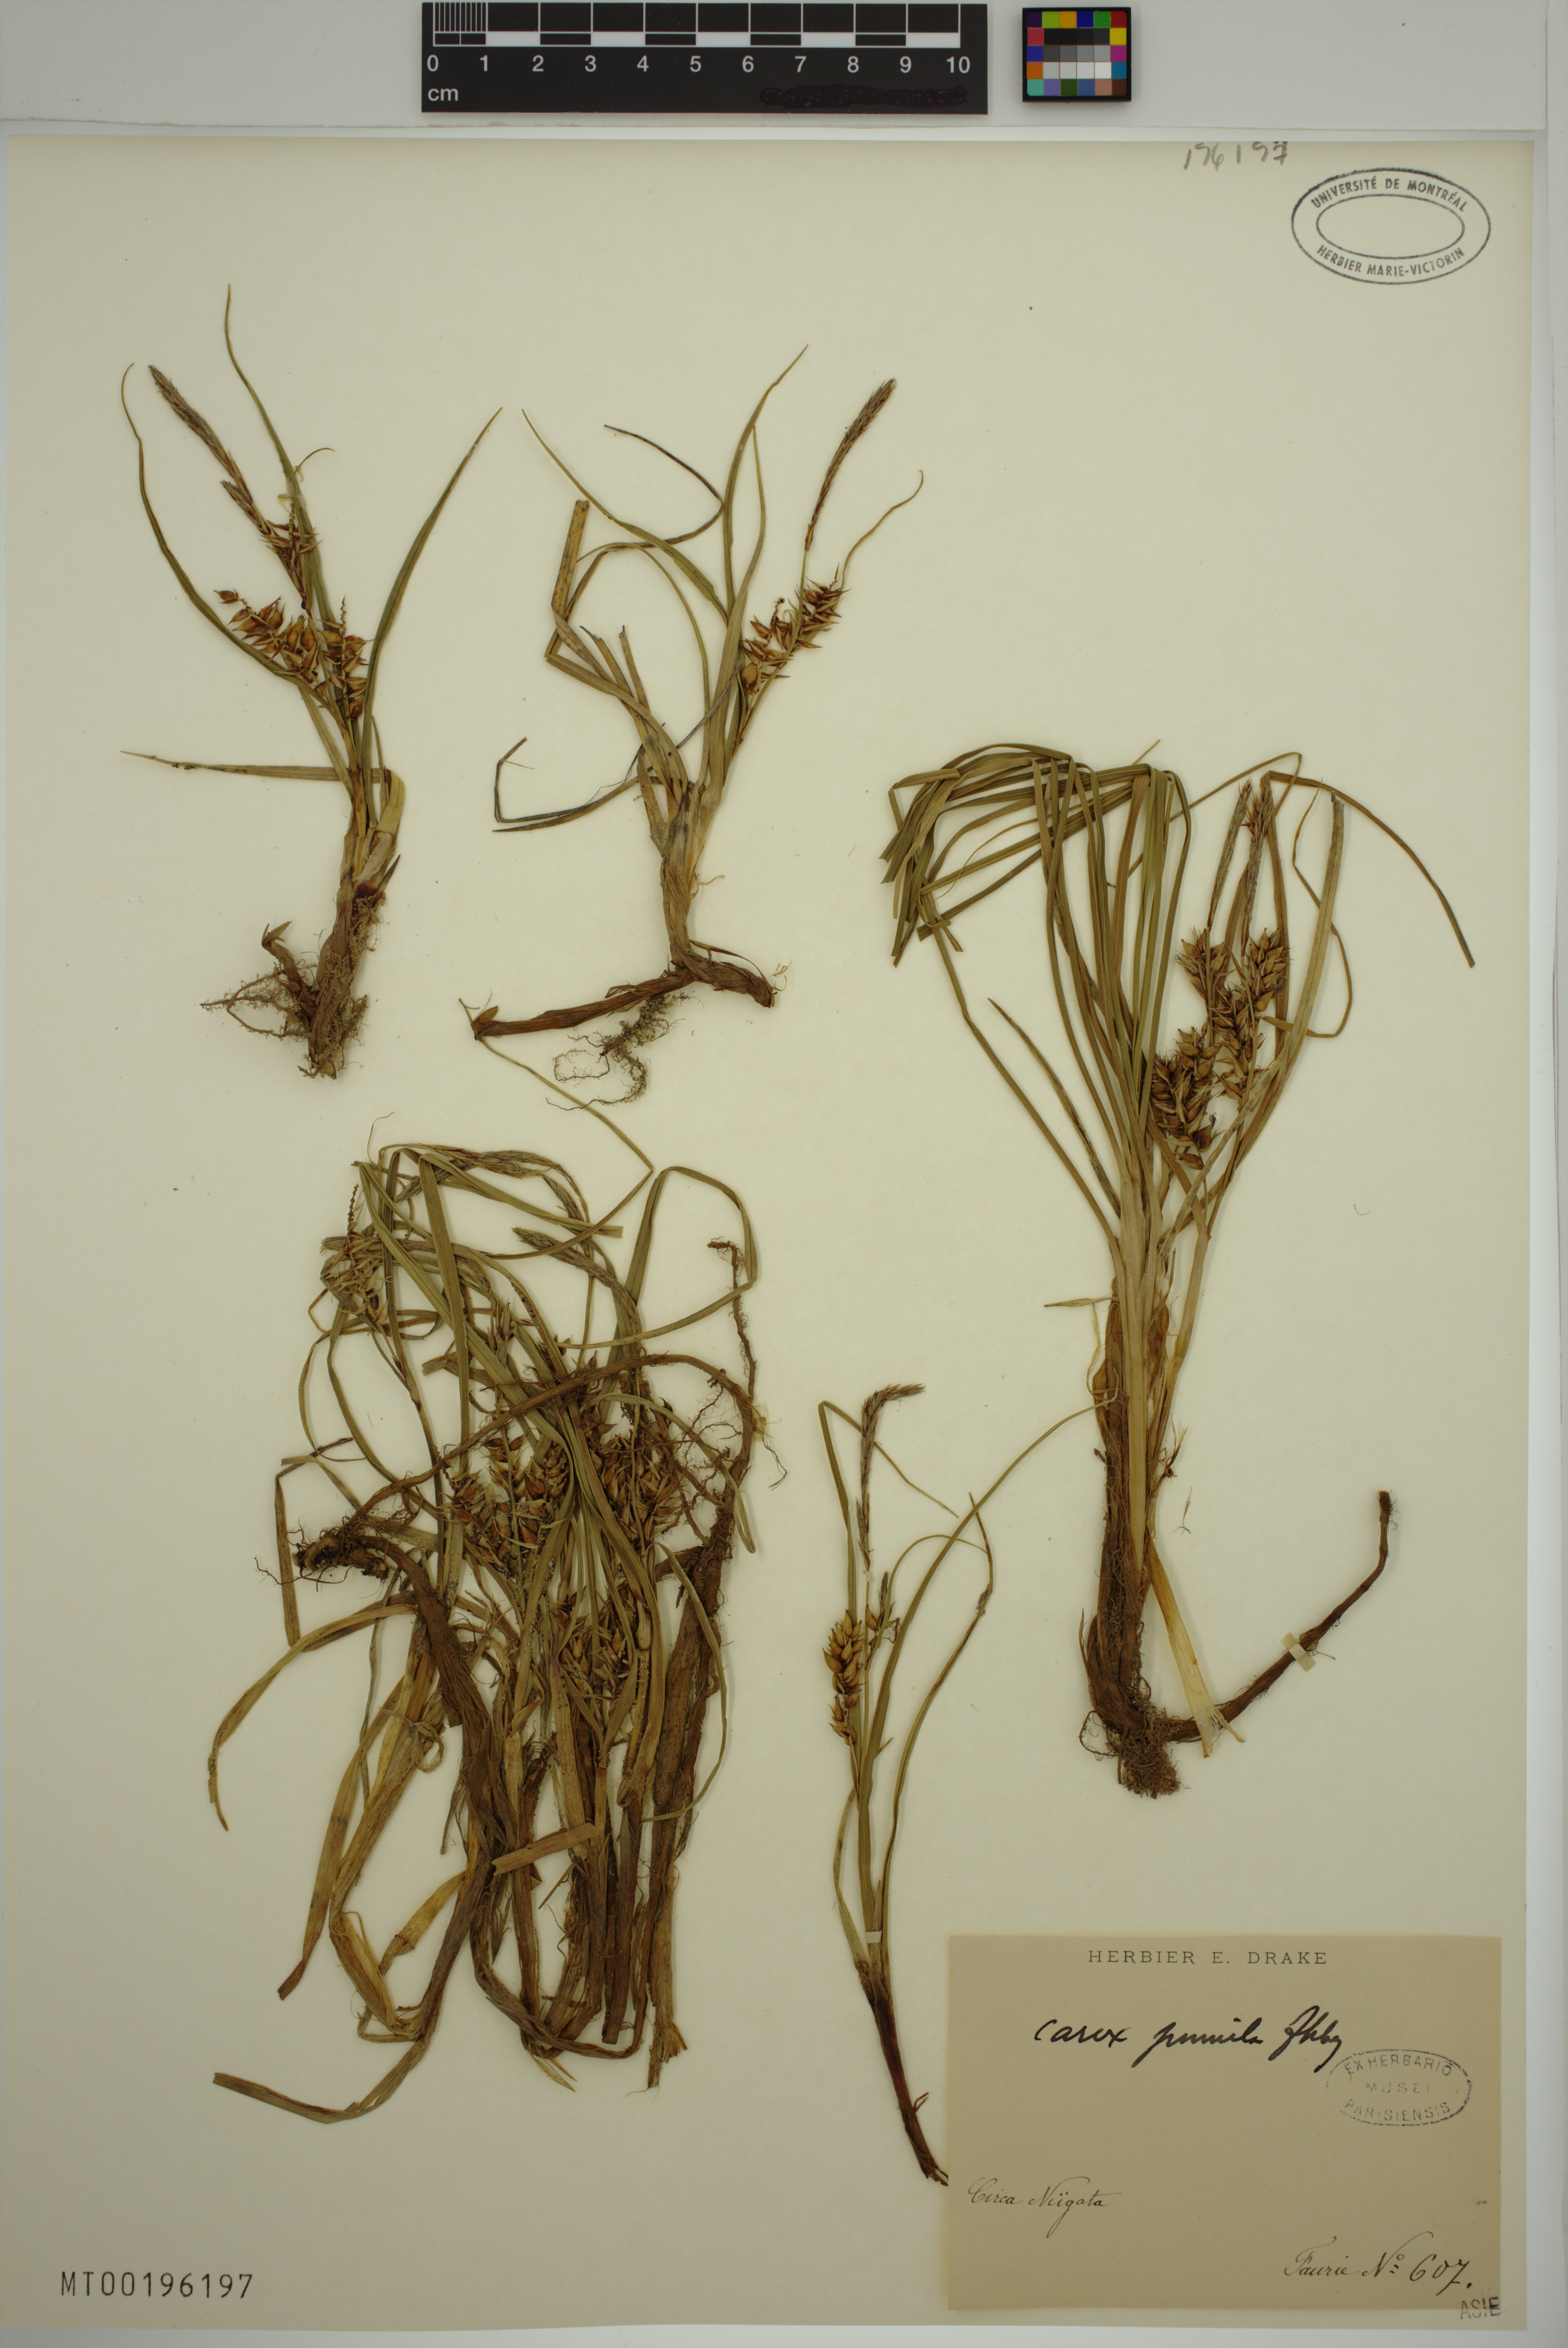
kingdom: Plantae
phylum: Tracheophyta
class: Liliopsida
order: Poales
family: Cyperaceae
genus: Carex
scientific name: Carex pumila
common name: Dwarf sedge
